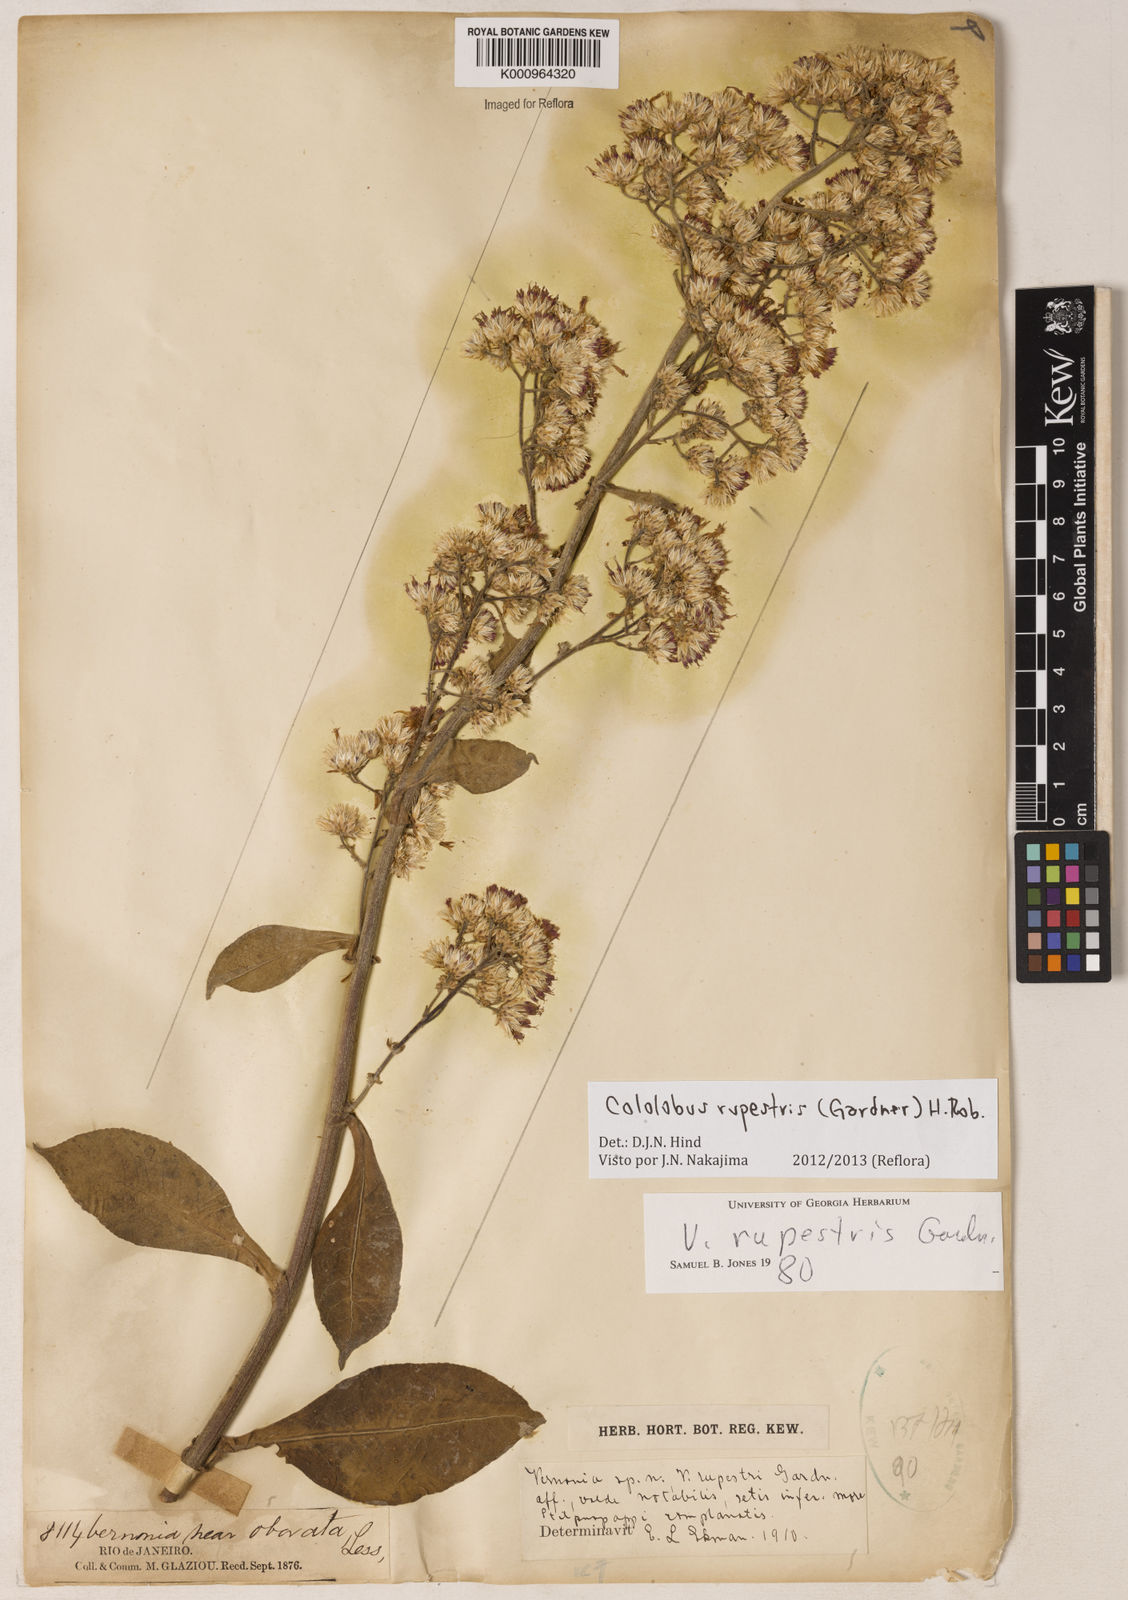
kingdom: Plantae
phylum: Tracheophyta
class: Magnoliopsida
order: Asterales
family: Asteraceae
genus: Cololobus
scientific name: Cololobus rupestris
